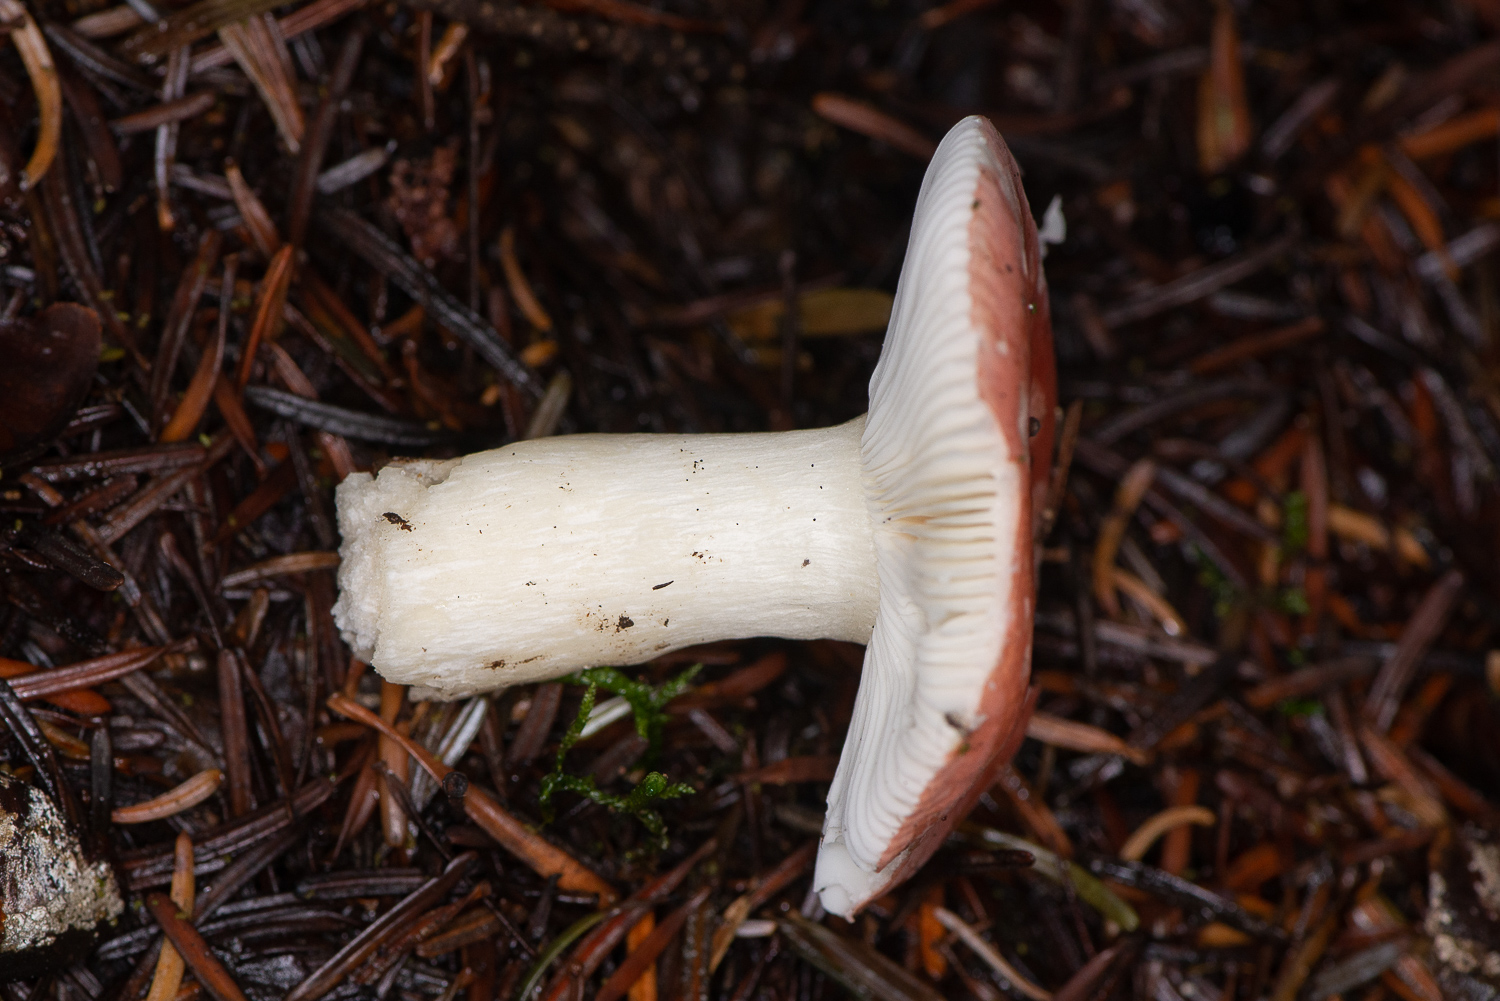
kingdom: Fungi
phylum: Basidiomycota
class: Agaricomycetes
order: Russulales
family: Russulaceae
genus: Russula
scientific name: Russula emetica
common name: stor gift-skørhat
